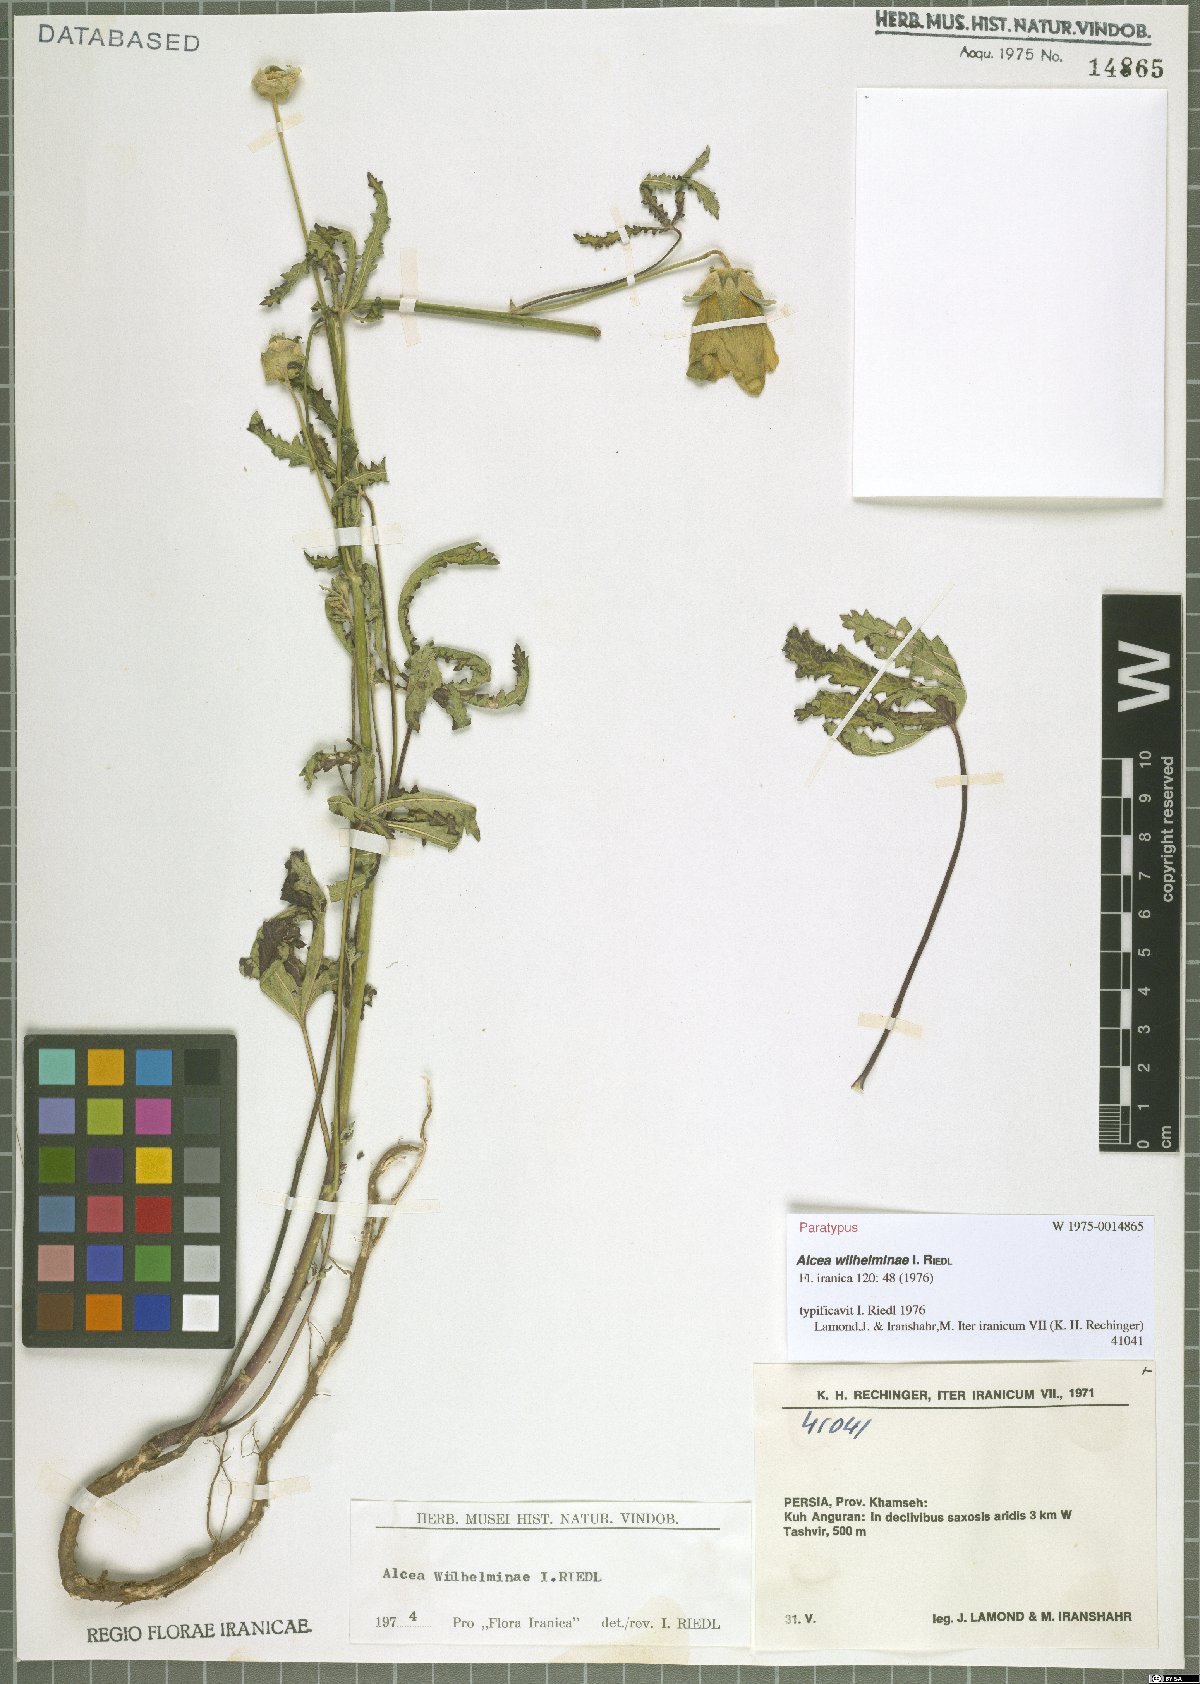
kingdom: Plantae
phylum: Tracheophyta
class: Magnoliopsida
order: Malvales
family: Malvaceae
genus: Alcea
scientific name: Alcea wilhelminae
